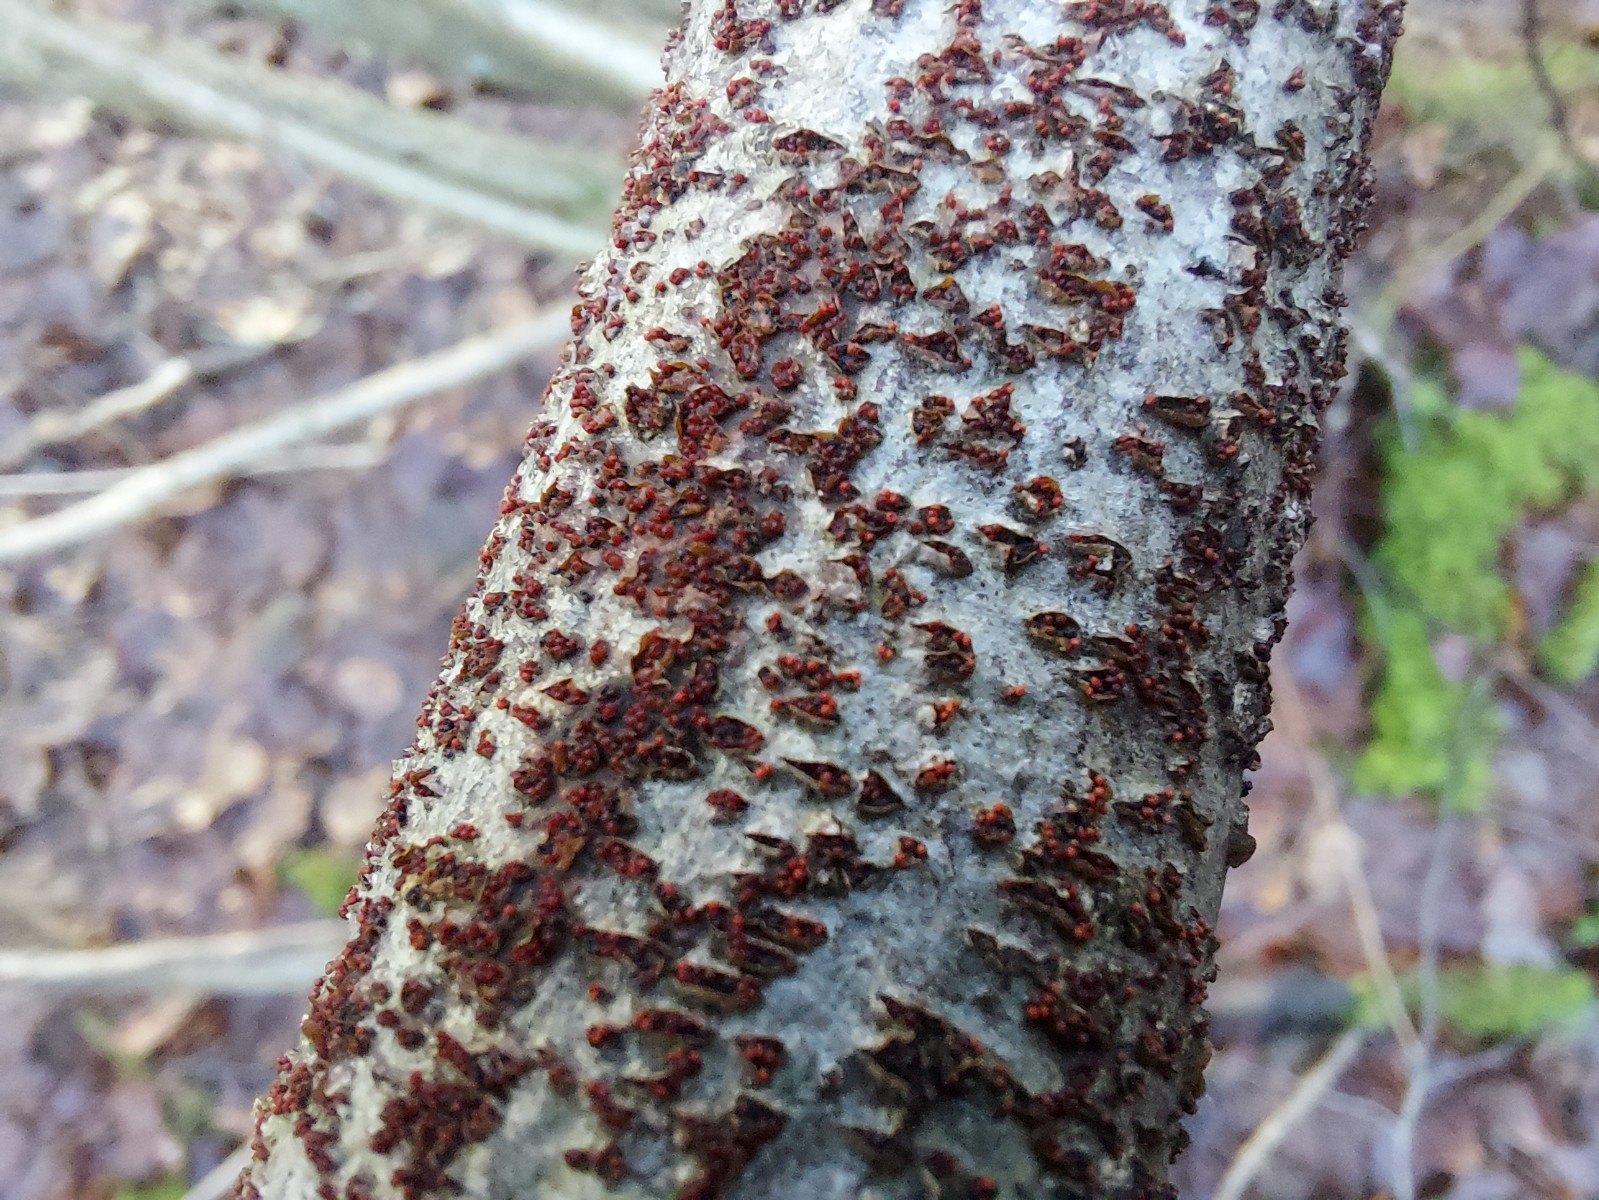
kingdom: Fungi
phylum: Ascomycota
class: Sordariomycetes
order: Hypocreales
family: Nectriaceae
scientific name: Nectriaceae
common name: cinnobersvampfamilien
